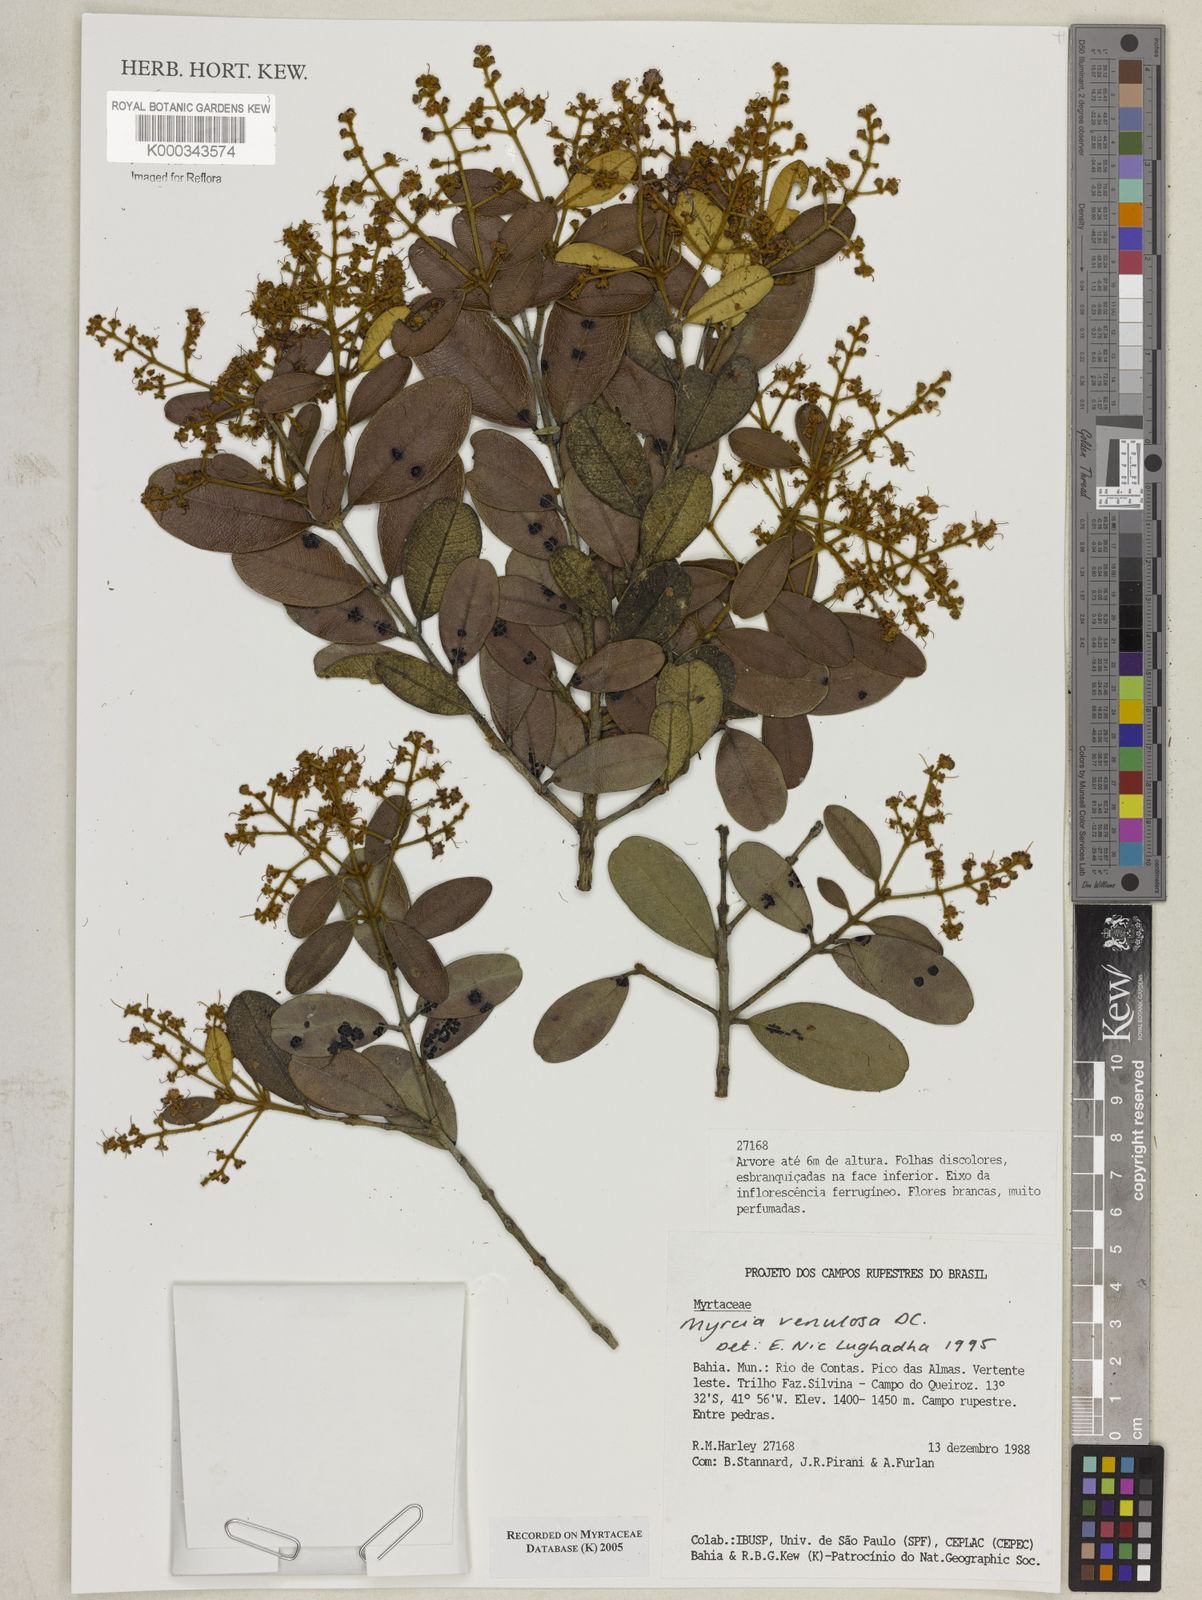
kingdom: Plantae
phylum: Tracheophyta
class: Magnoliopsida
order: Myrtales
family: Myrtaceae
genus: Myrcia
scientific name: Myrcia venulosa
